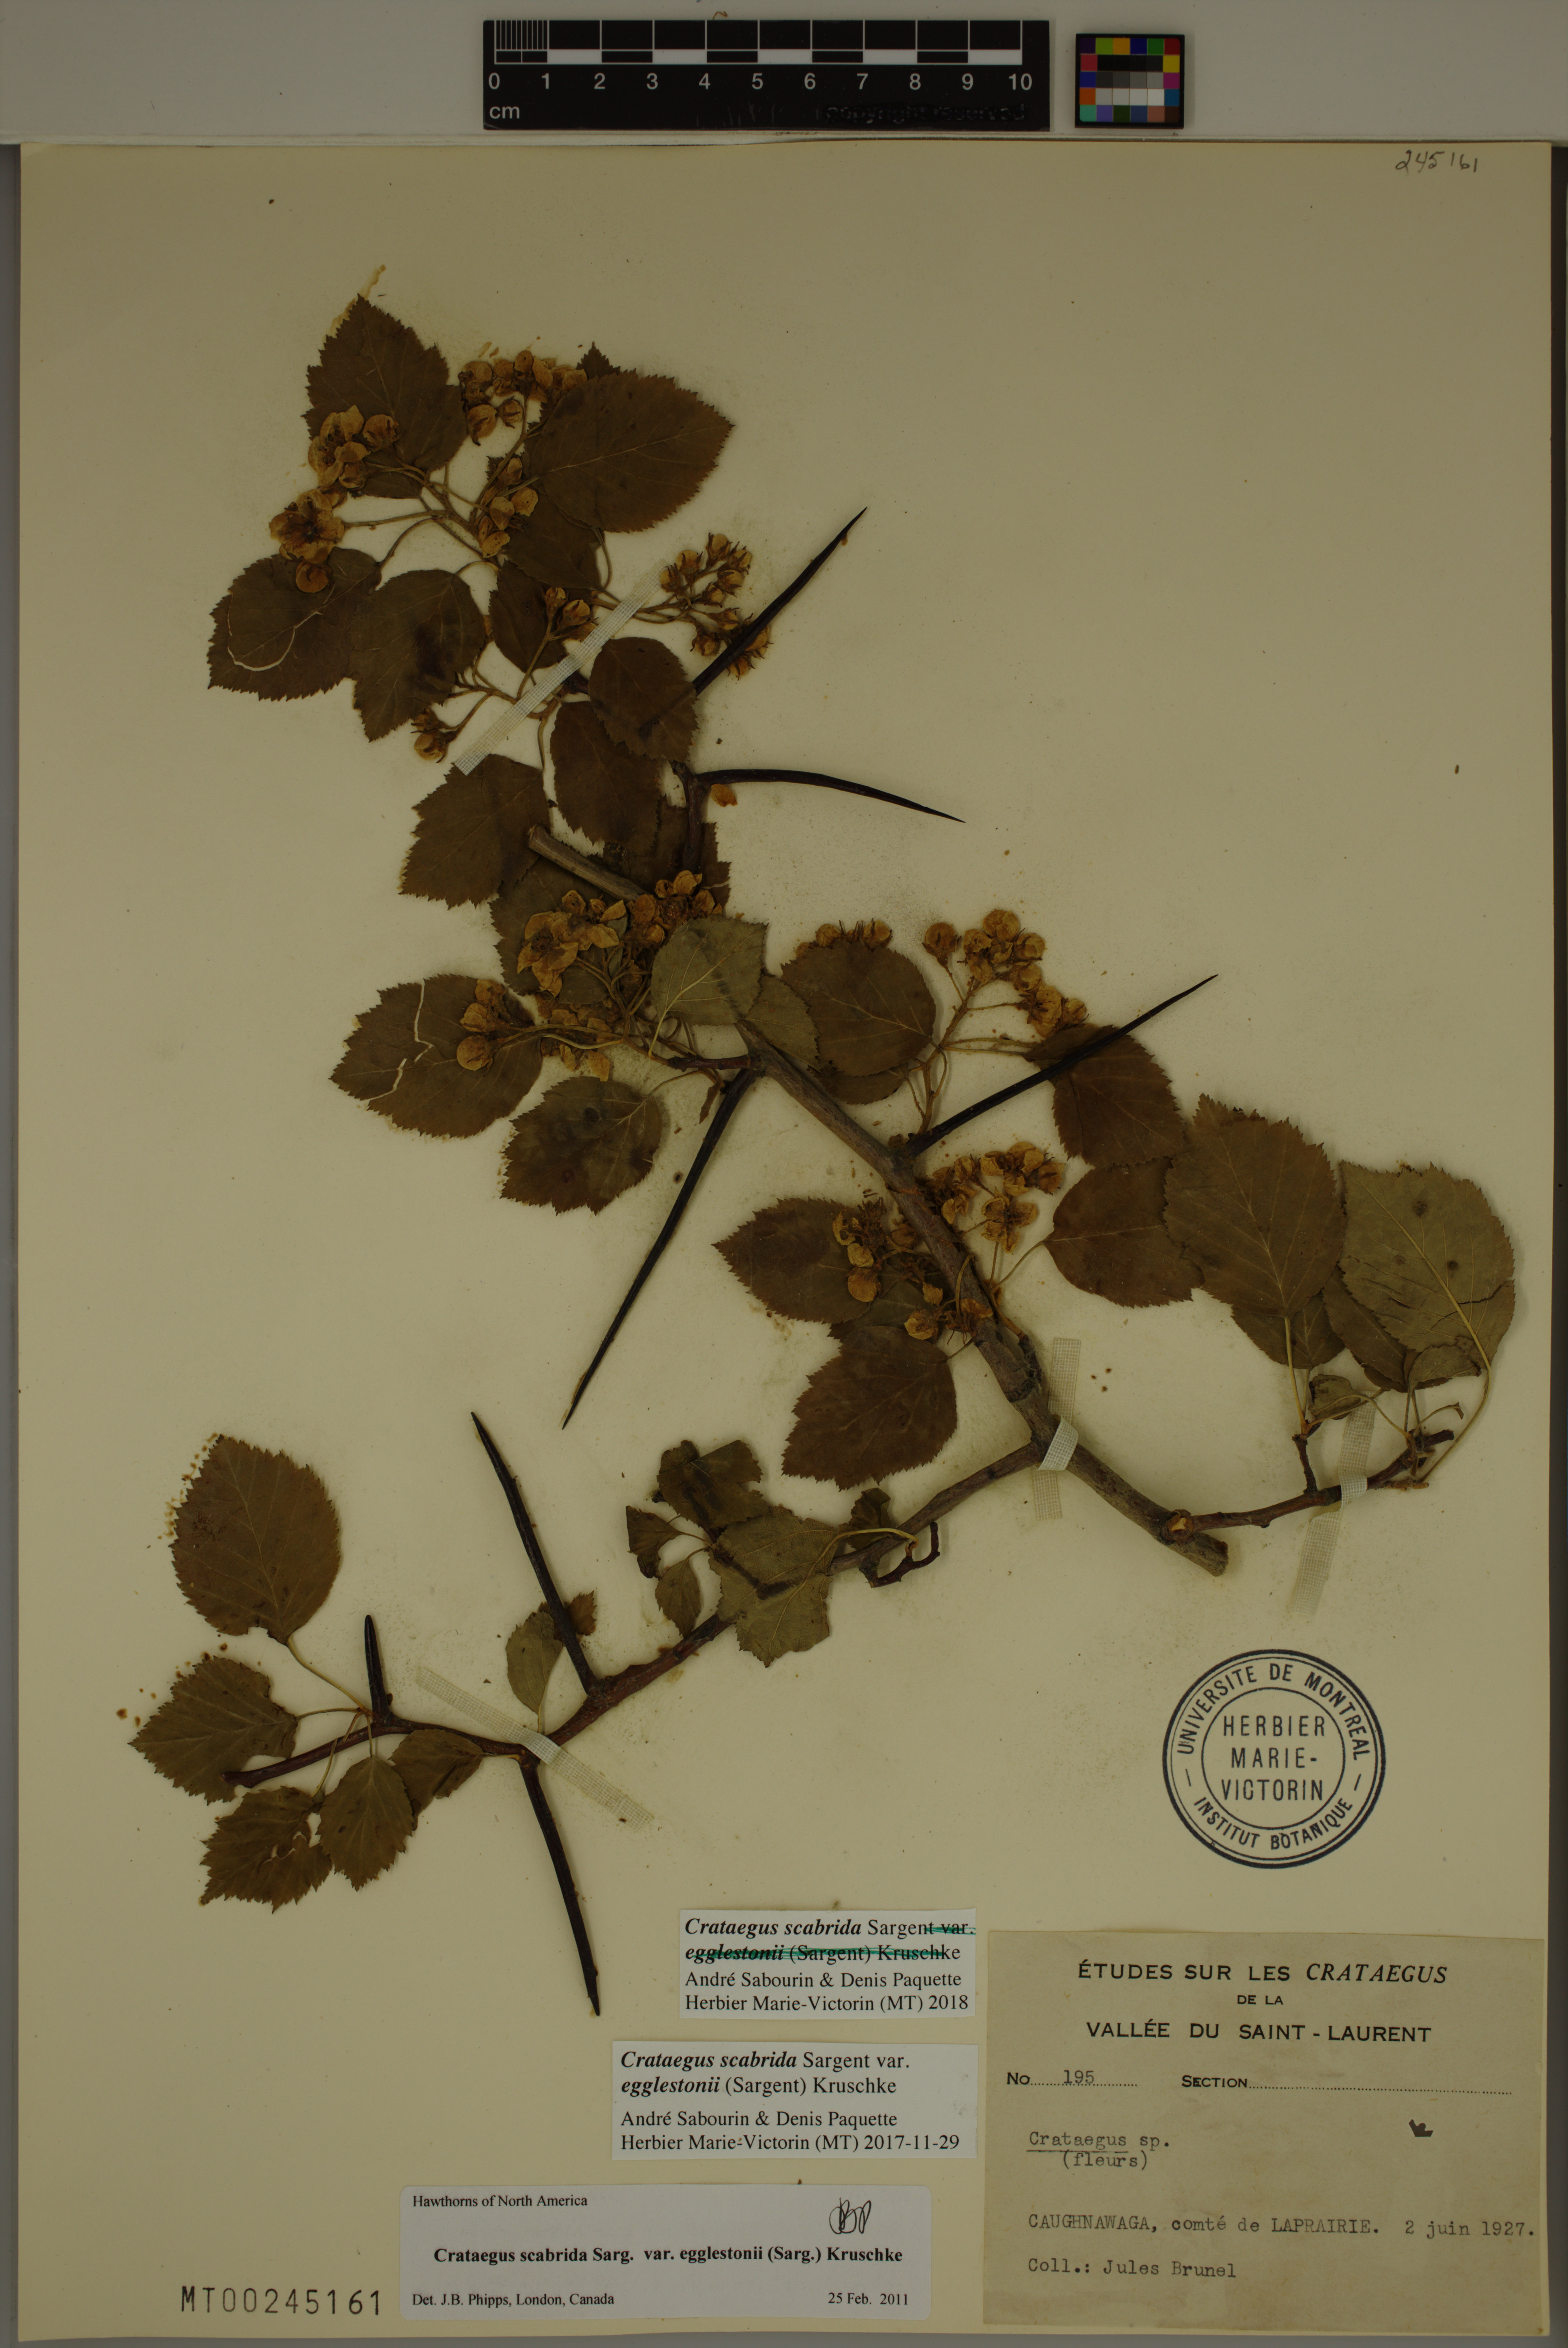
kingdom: Plantae
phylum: Tracheophyta
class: Magnoliopsida
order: Rosales
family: Rosaceae
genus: Crataegus
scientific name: Crataegus scabrida
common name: Rough hawthorn
